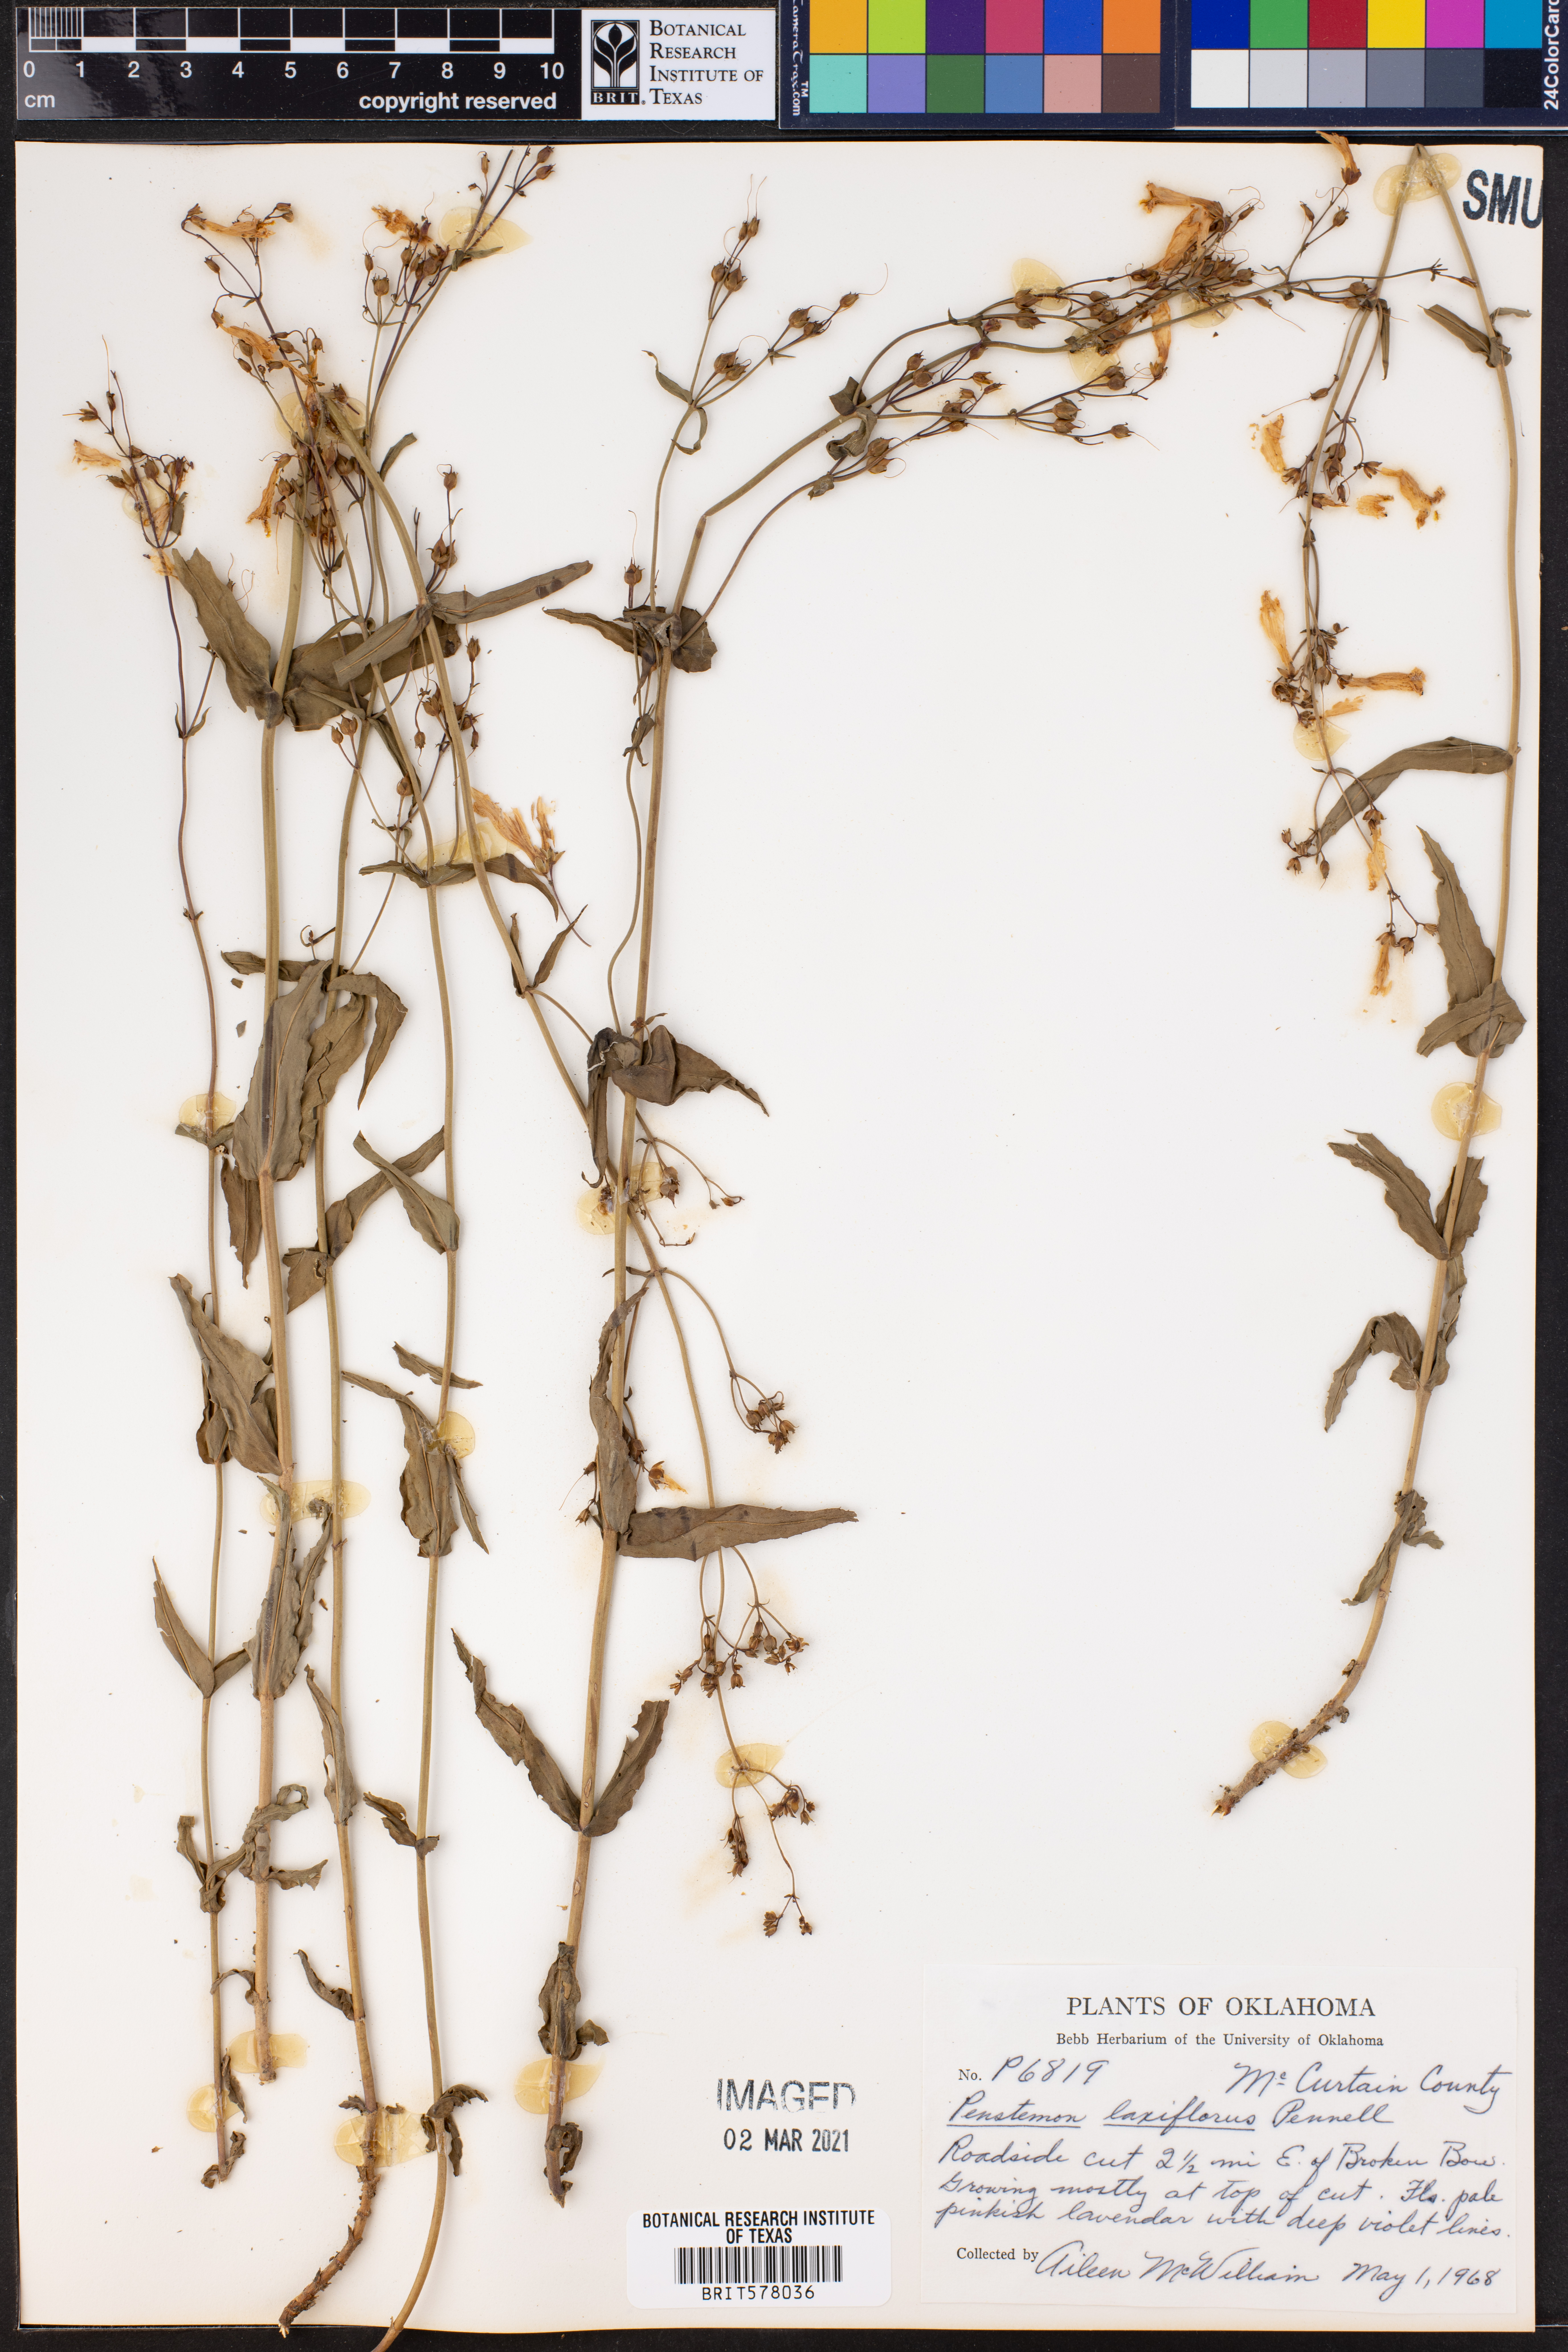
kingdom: Plantae
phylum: Tracheophyta
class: Magnoliopsida
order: Lamiales
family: Plantaginaceae
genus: Penstemon
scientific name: Penstemon laxiflorus
